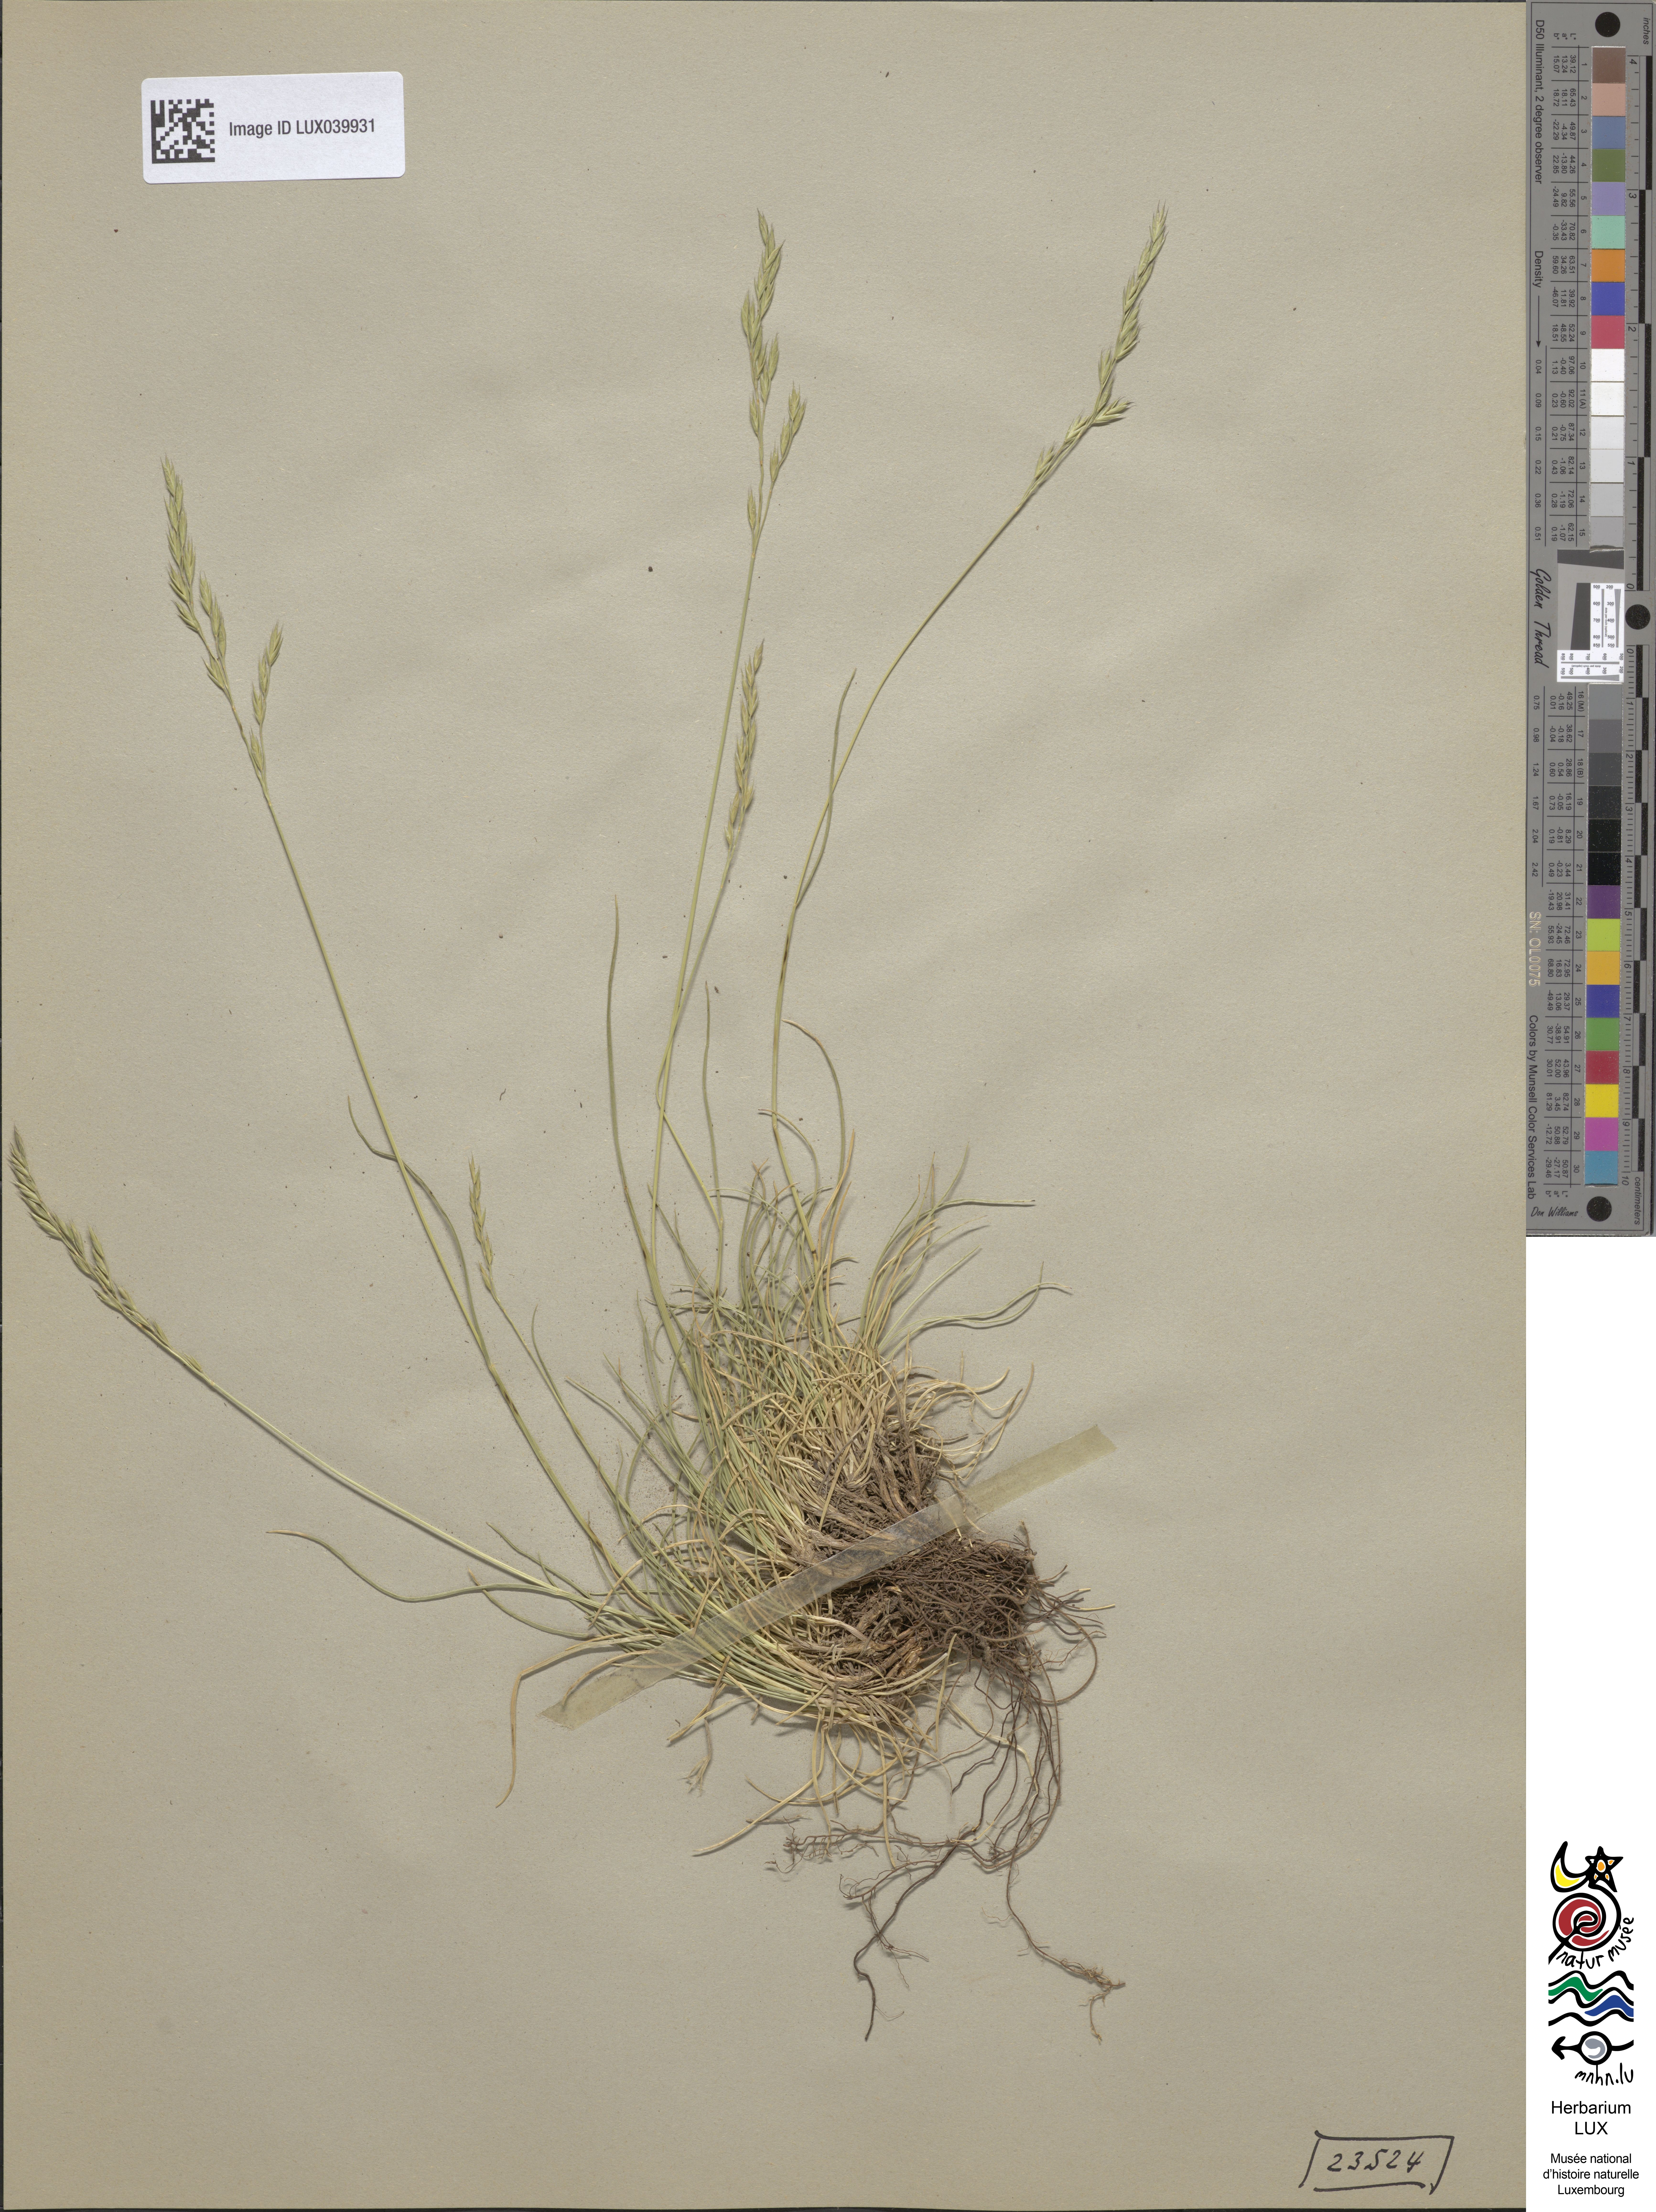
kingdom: Plantae
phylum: Tracheophyta
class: Liliopsida
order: Poales
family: Poaceae
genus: Festuca
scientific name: Festuca rubra
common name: Red fescue
